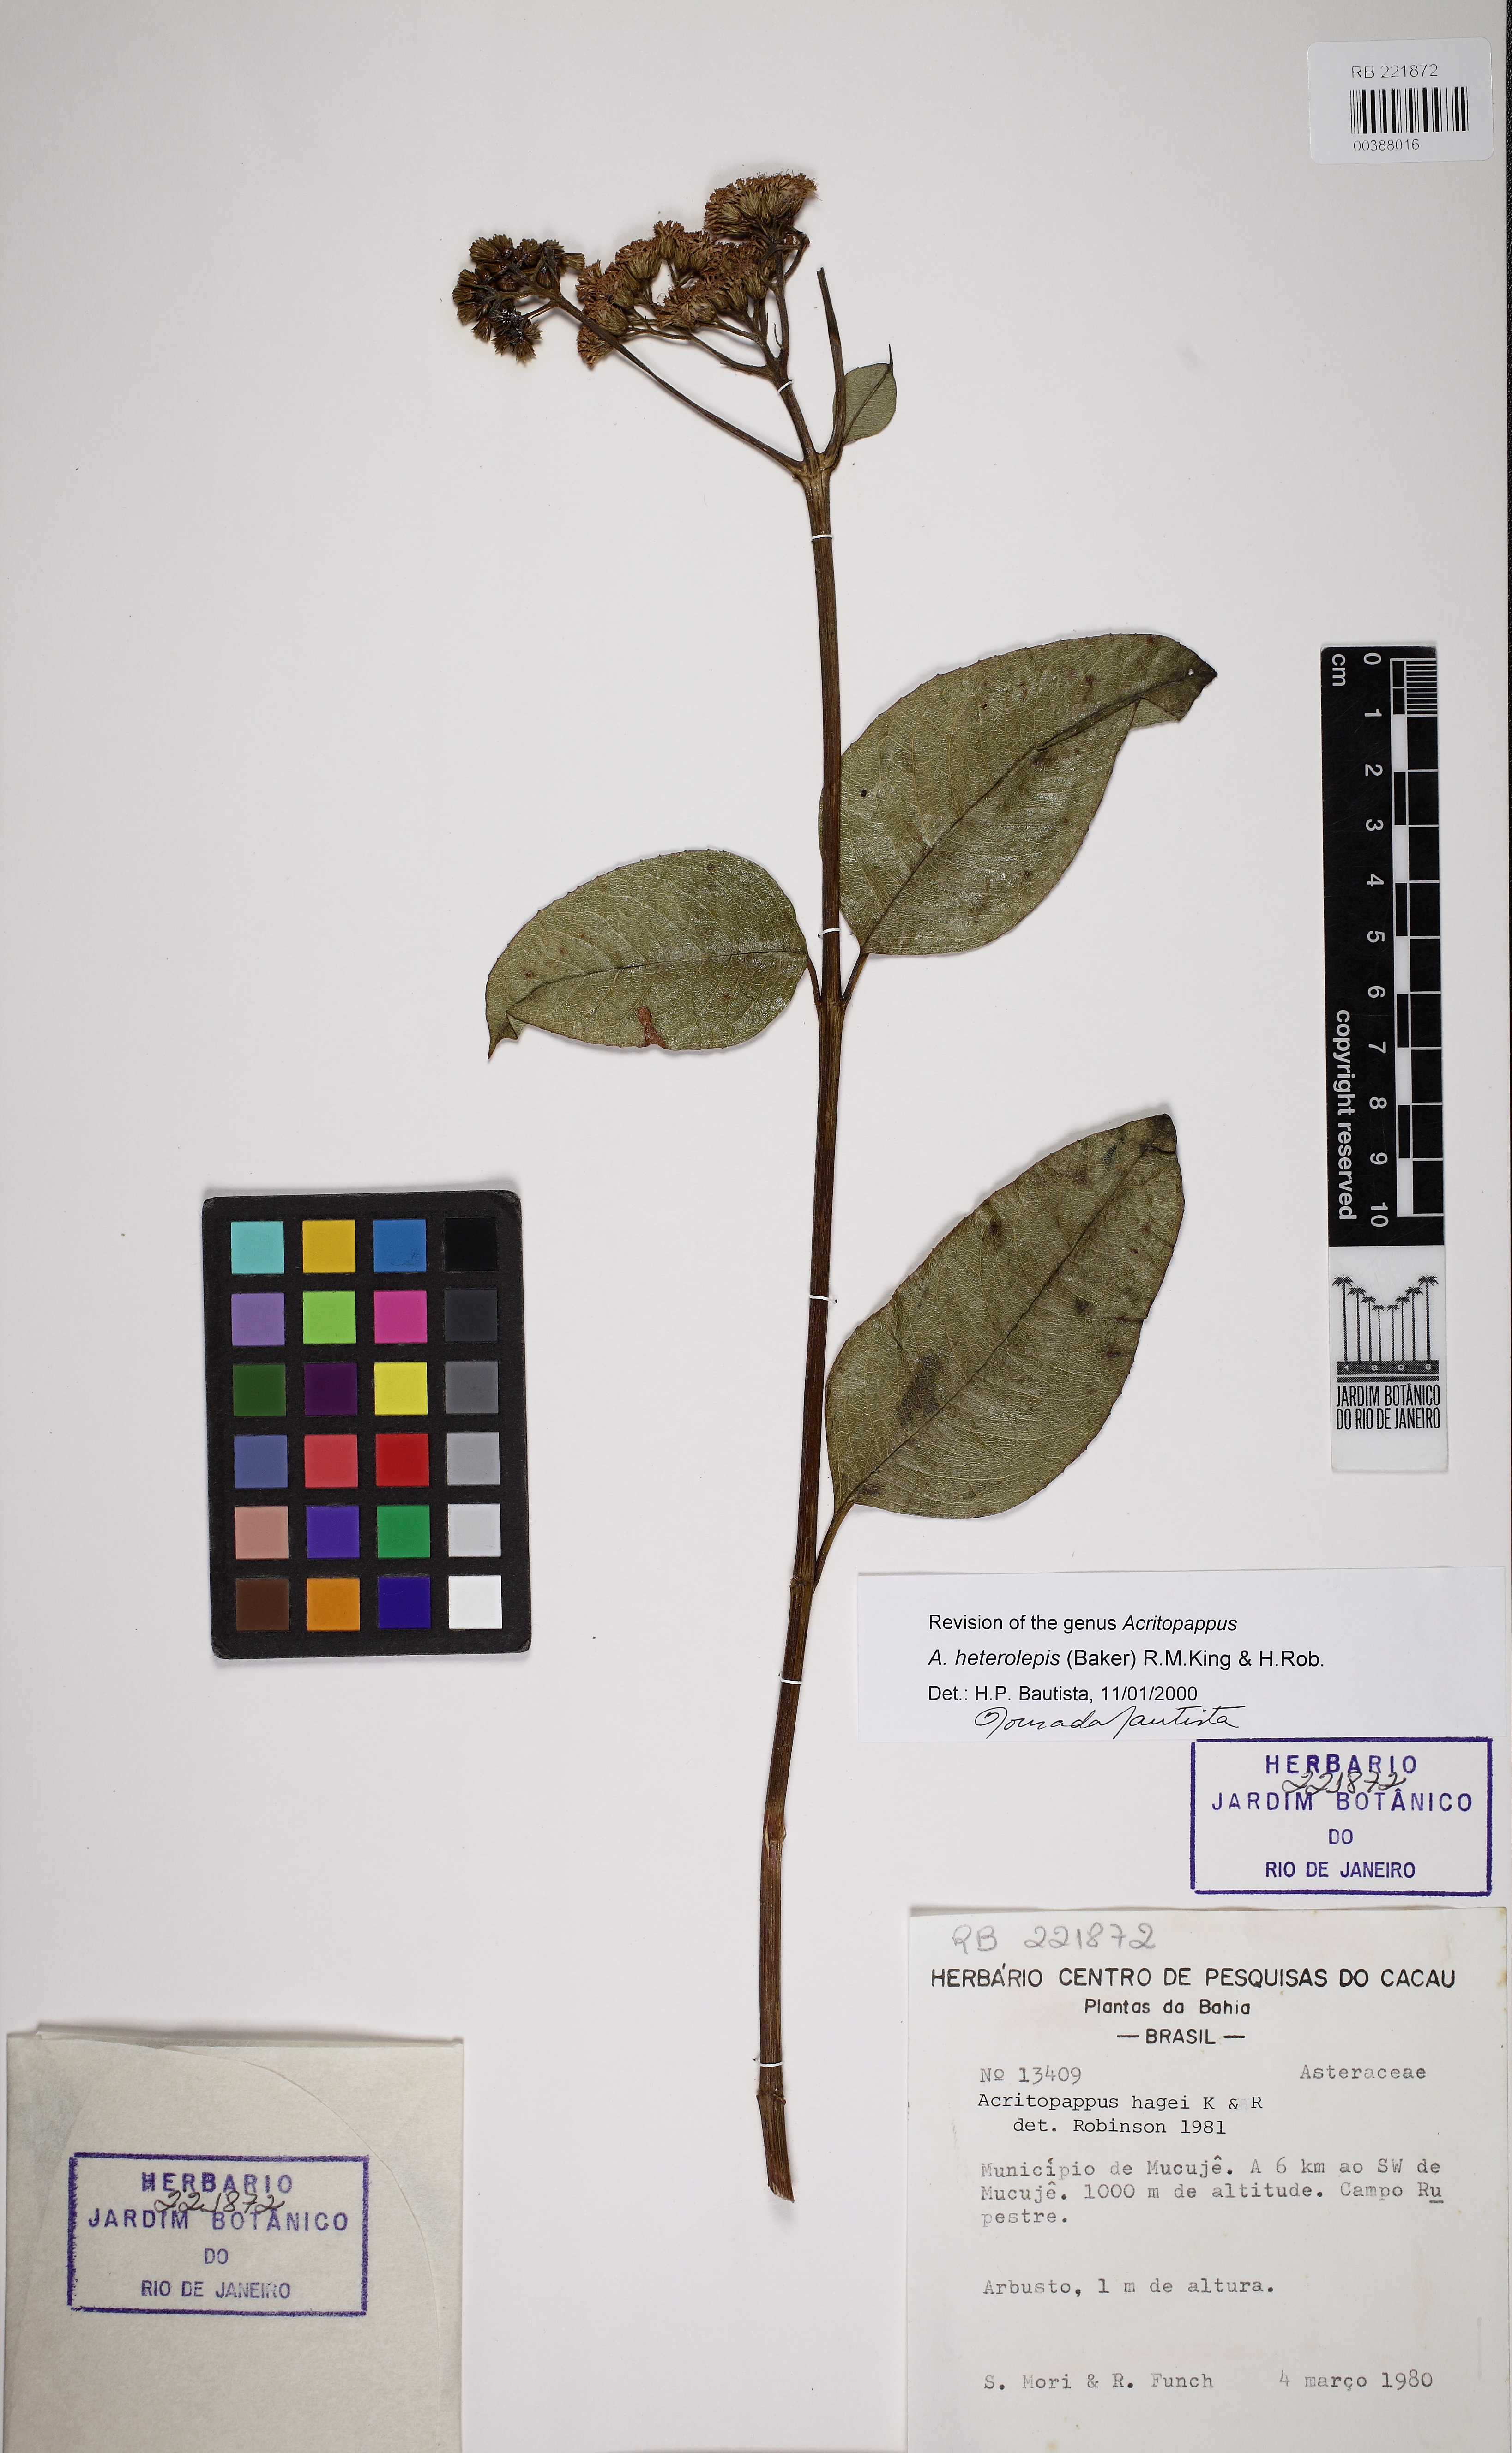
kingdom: Plantae
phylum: Tracheophyta
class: Magnoliopsida
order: Asterales
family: Asteraceae
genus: Acritopappus
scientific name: Acritopappus heterolepis
